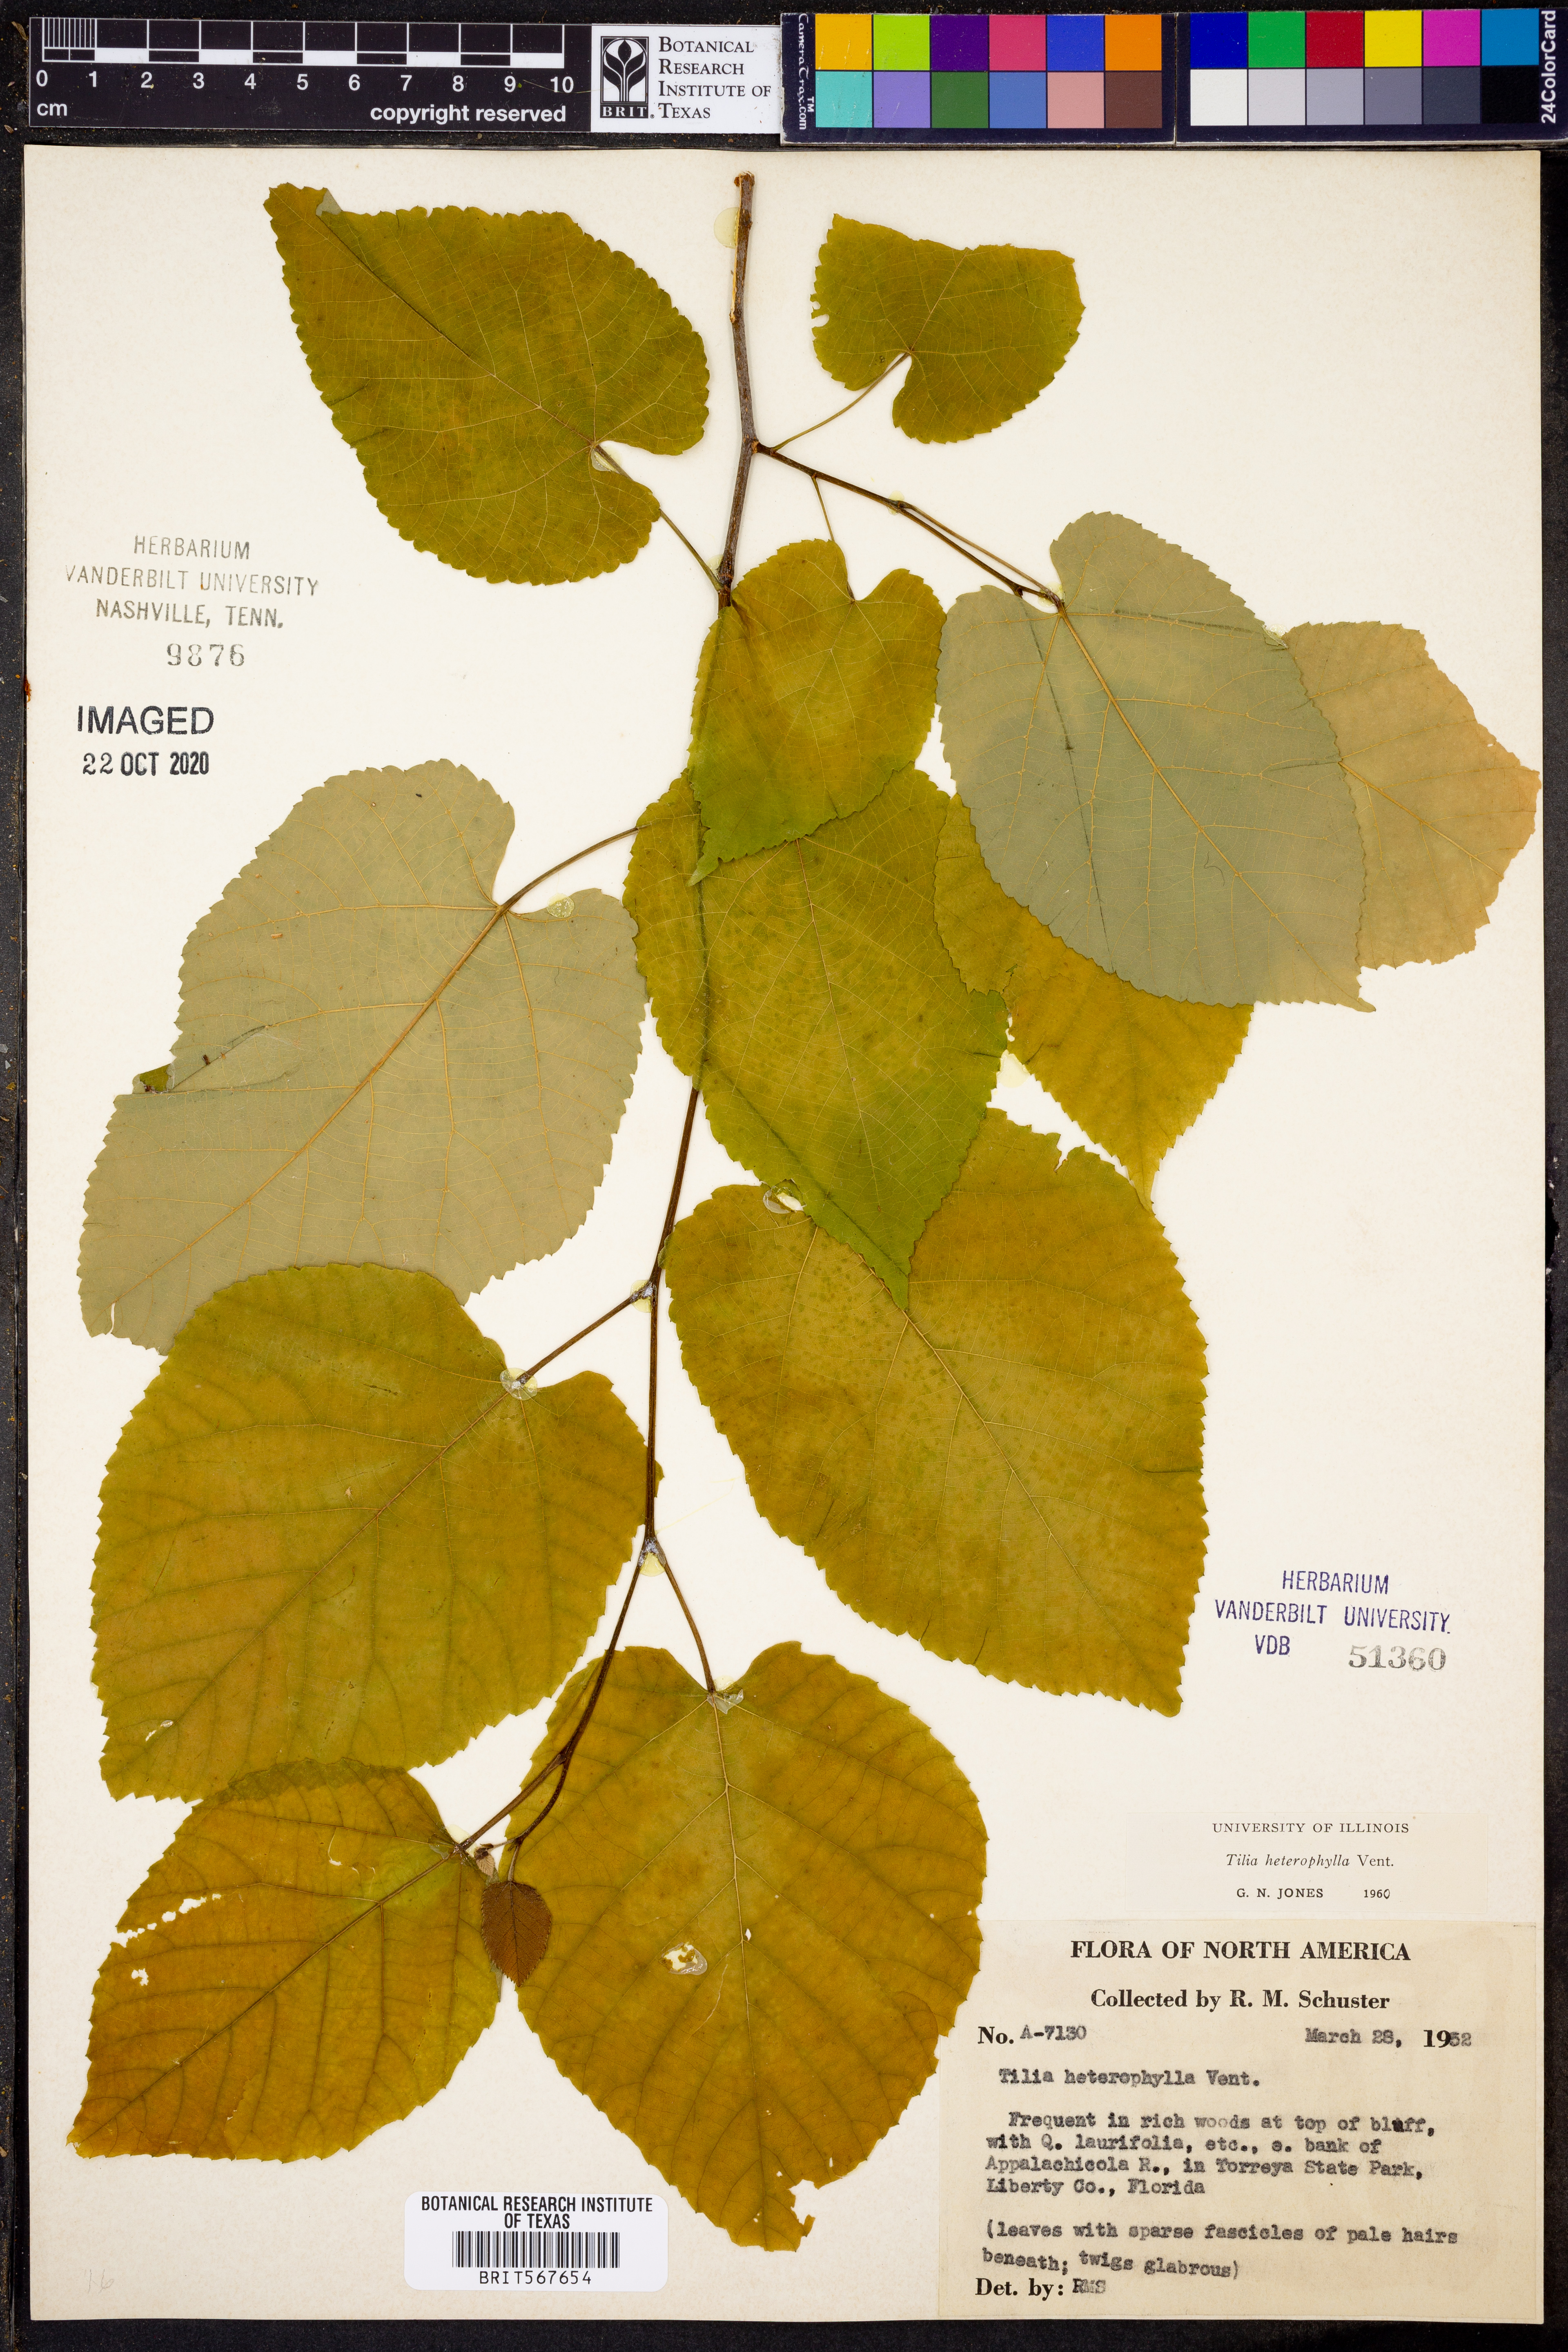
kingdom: Plantae
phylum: Tracheophyta
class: Magnoliopsida
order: Malvales
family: Malvaceae
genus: Tilia
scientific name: Tilia americana
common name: Basswood
